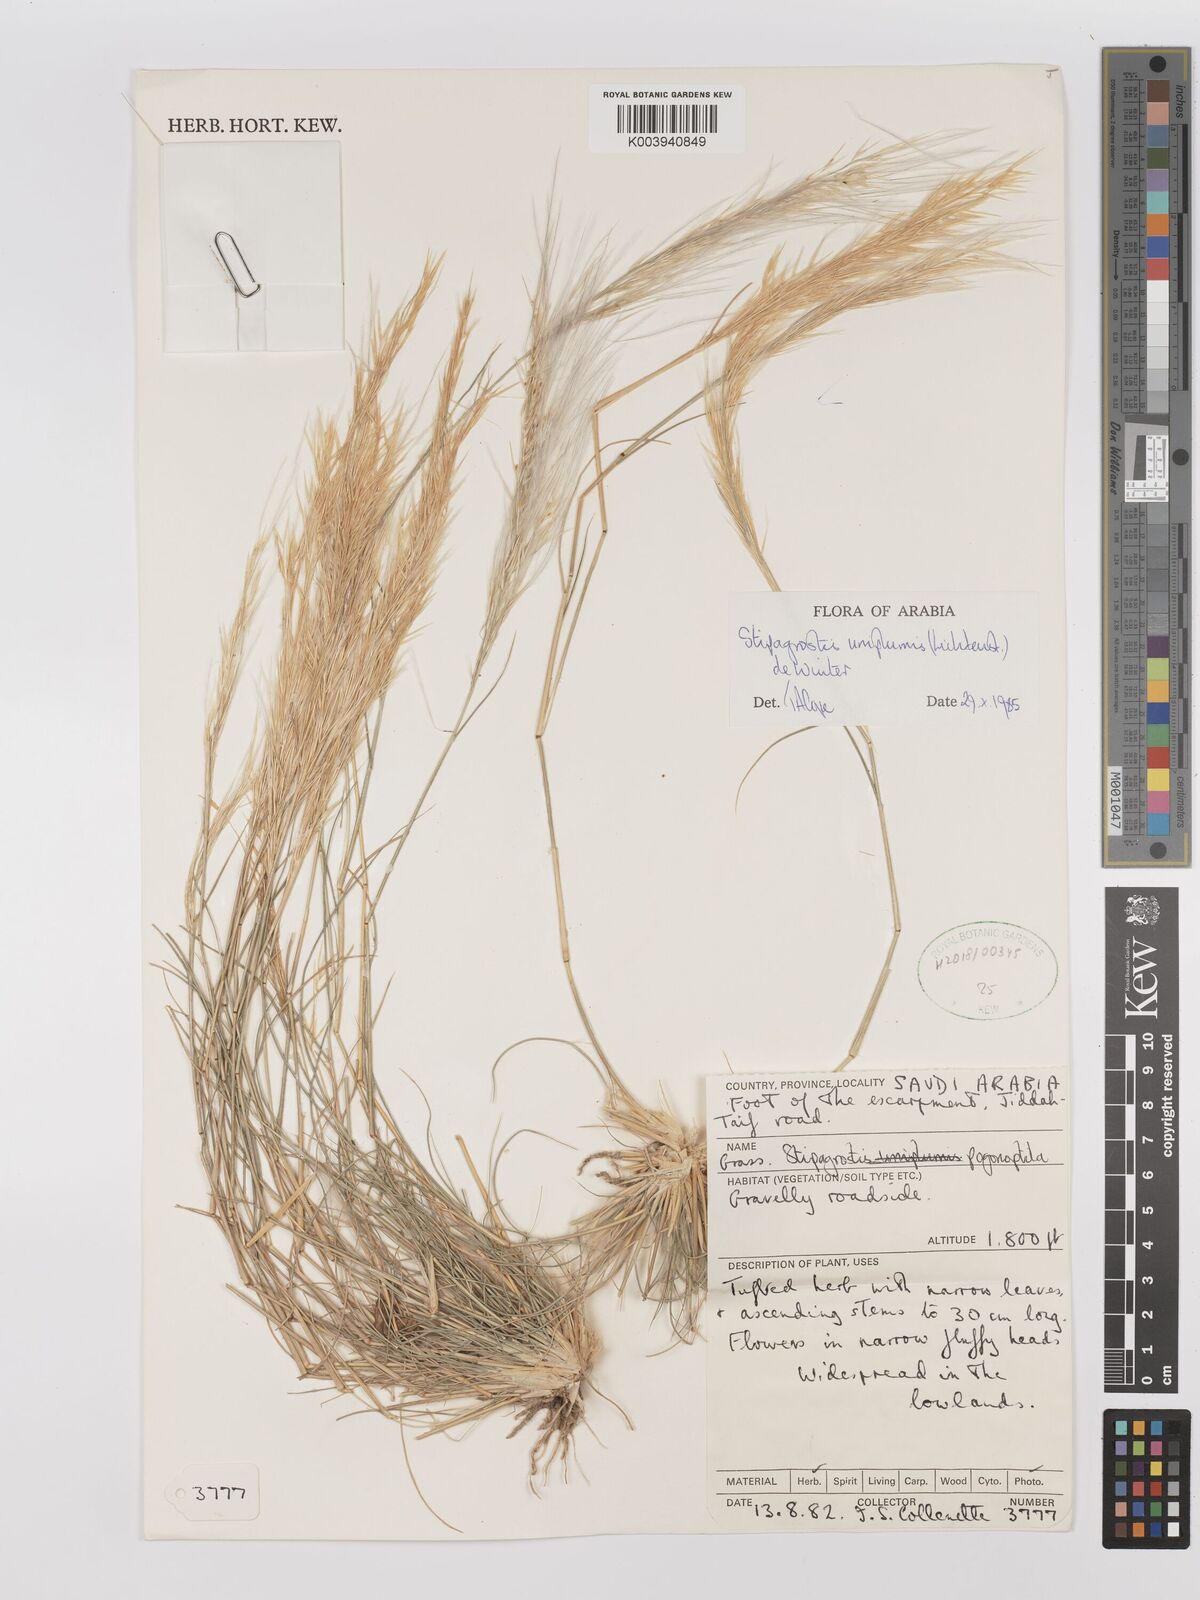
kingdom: Plantae
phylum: Tracheophyta
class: Liliopsida
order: Poales
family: Poaceae
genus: Stipagrostis
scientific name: Stipagrostis uniplumis
